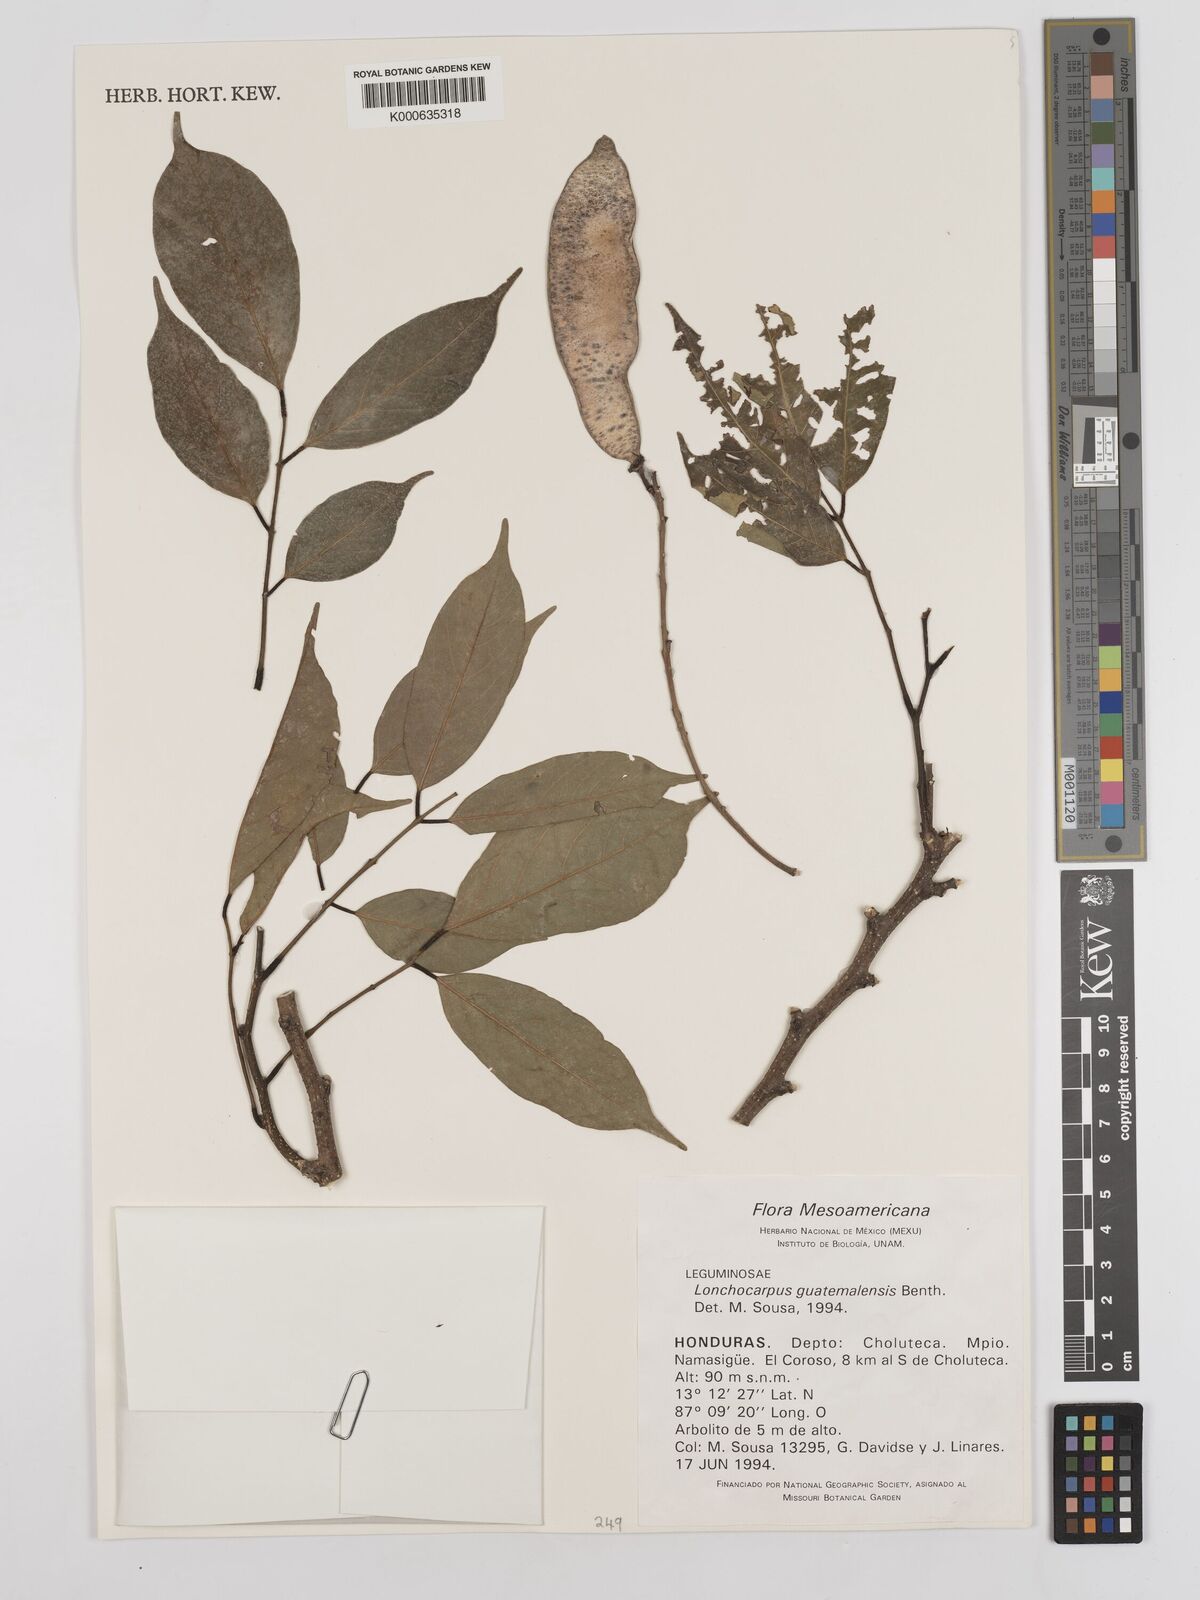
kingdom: Plantae
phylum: Tracheophyta
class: Magnoliopsida
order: Fabales
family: Fabaceae
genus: Lonchocarpus
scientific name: Lonchocarpus guatemalensis
